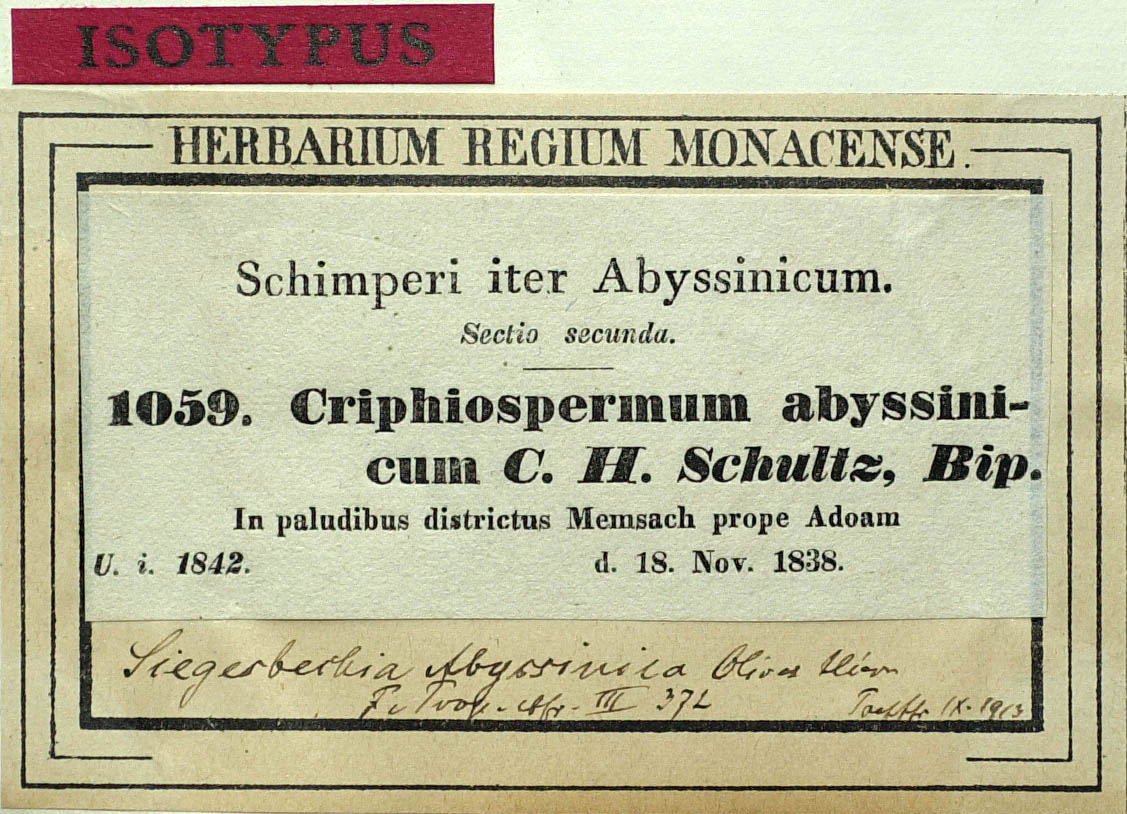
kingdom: Plantae
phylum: Tracheophyta
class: Magnoliopsida
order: Asterales
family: Asteraceae
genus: Micractis
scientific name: Micractis bojeri
